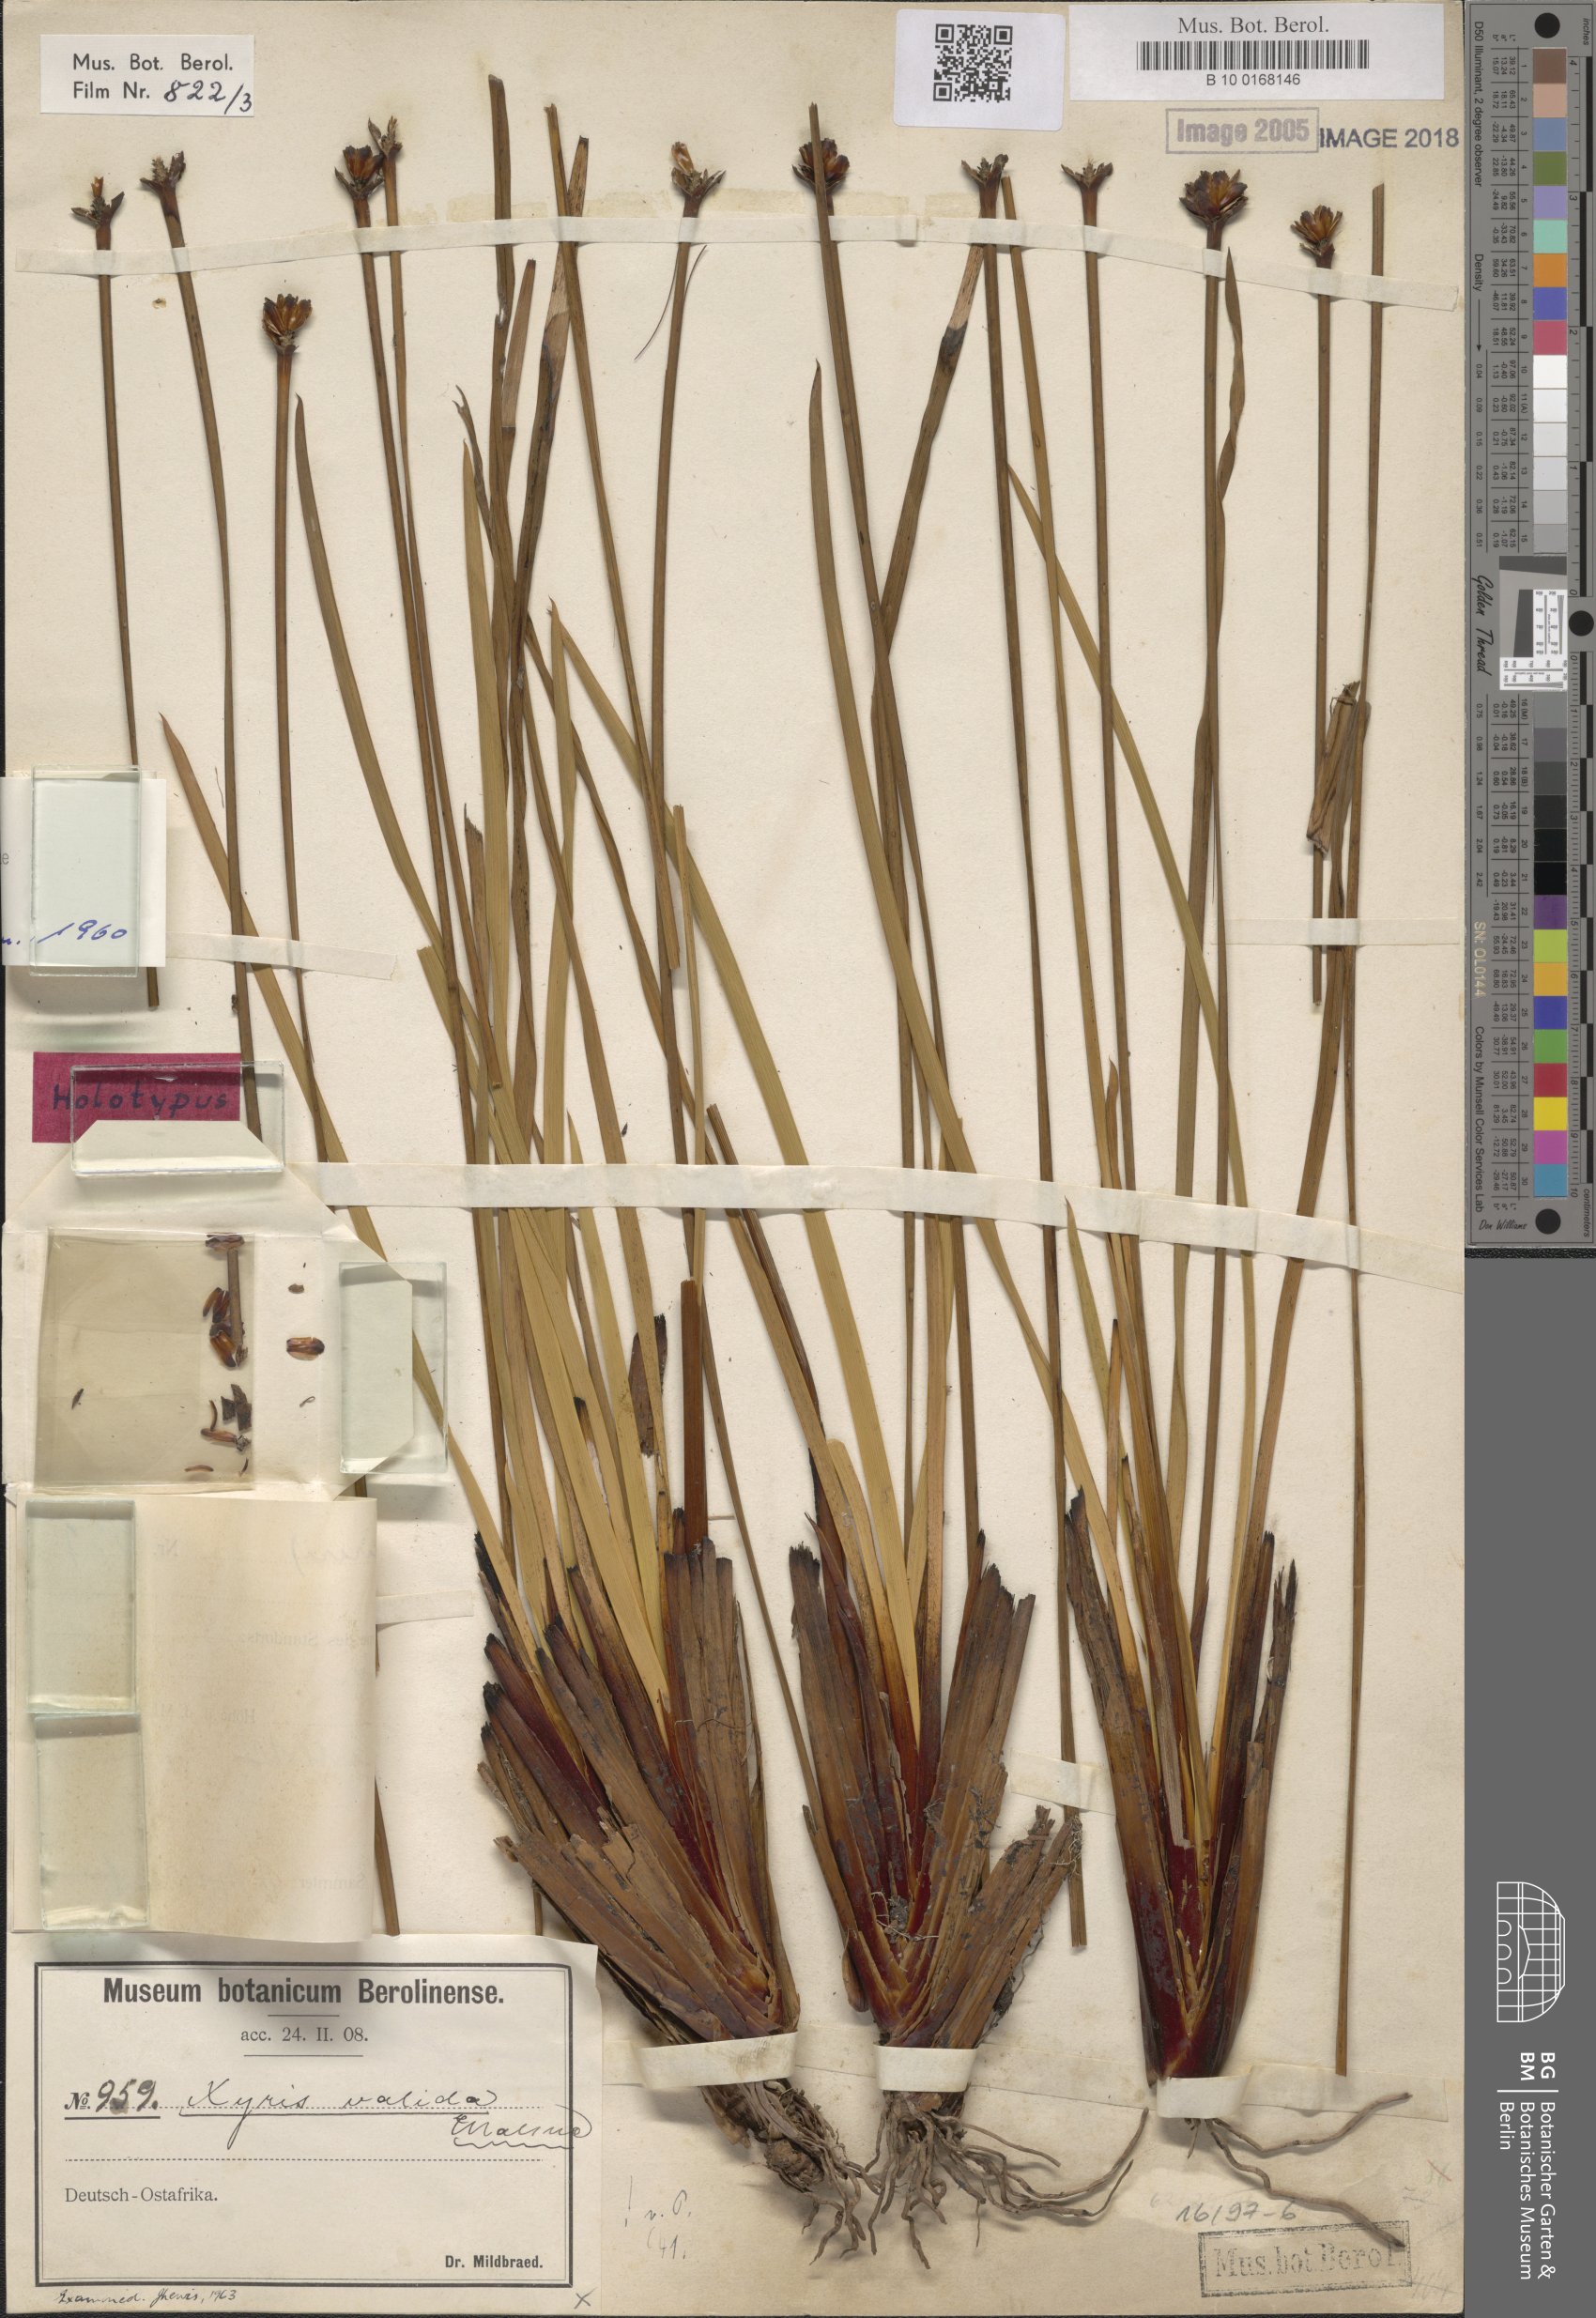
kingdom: Plantae
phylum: Tracheophyta
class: Liliopsida
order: Poales
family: Xyridaceae
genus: Xyris
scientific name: Xyris valida
